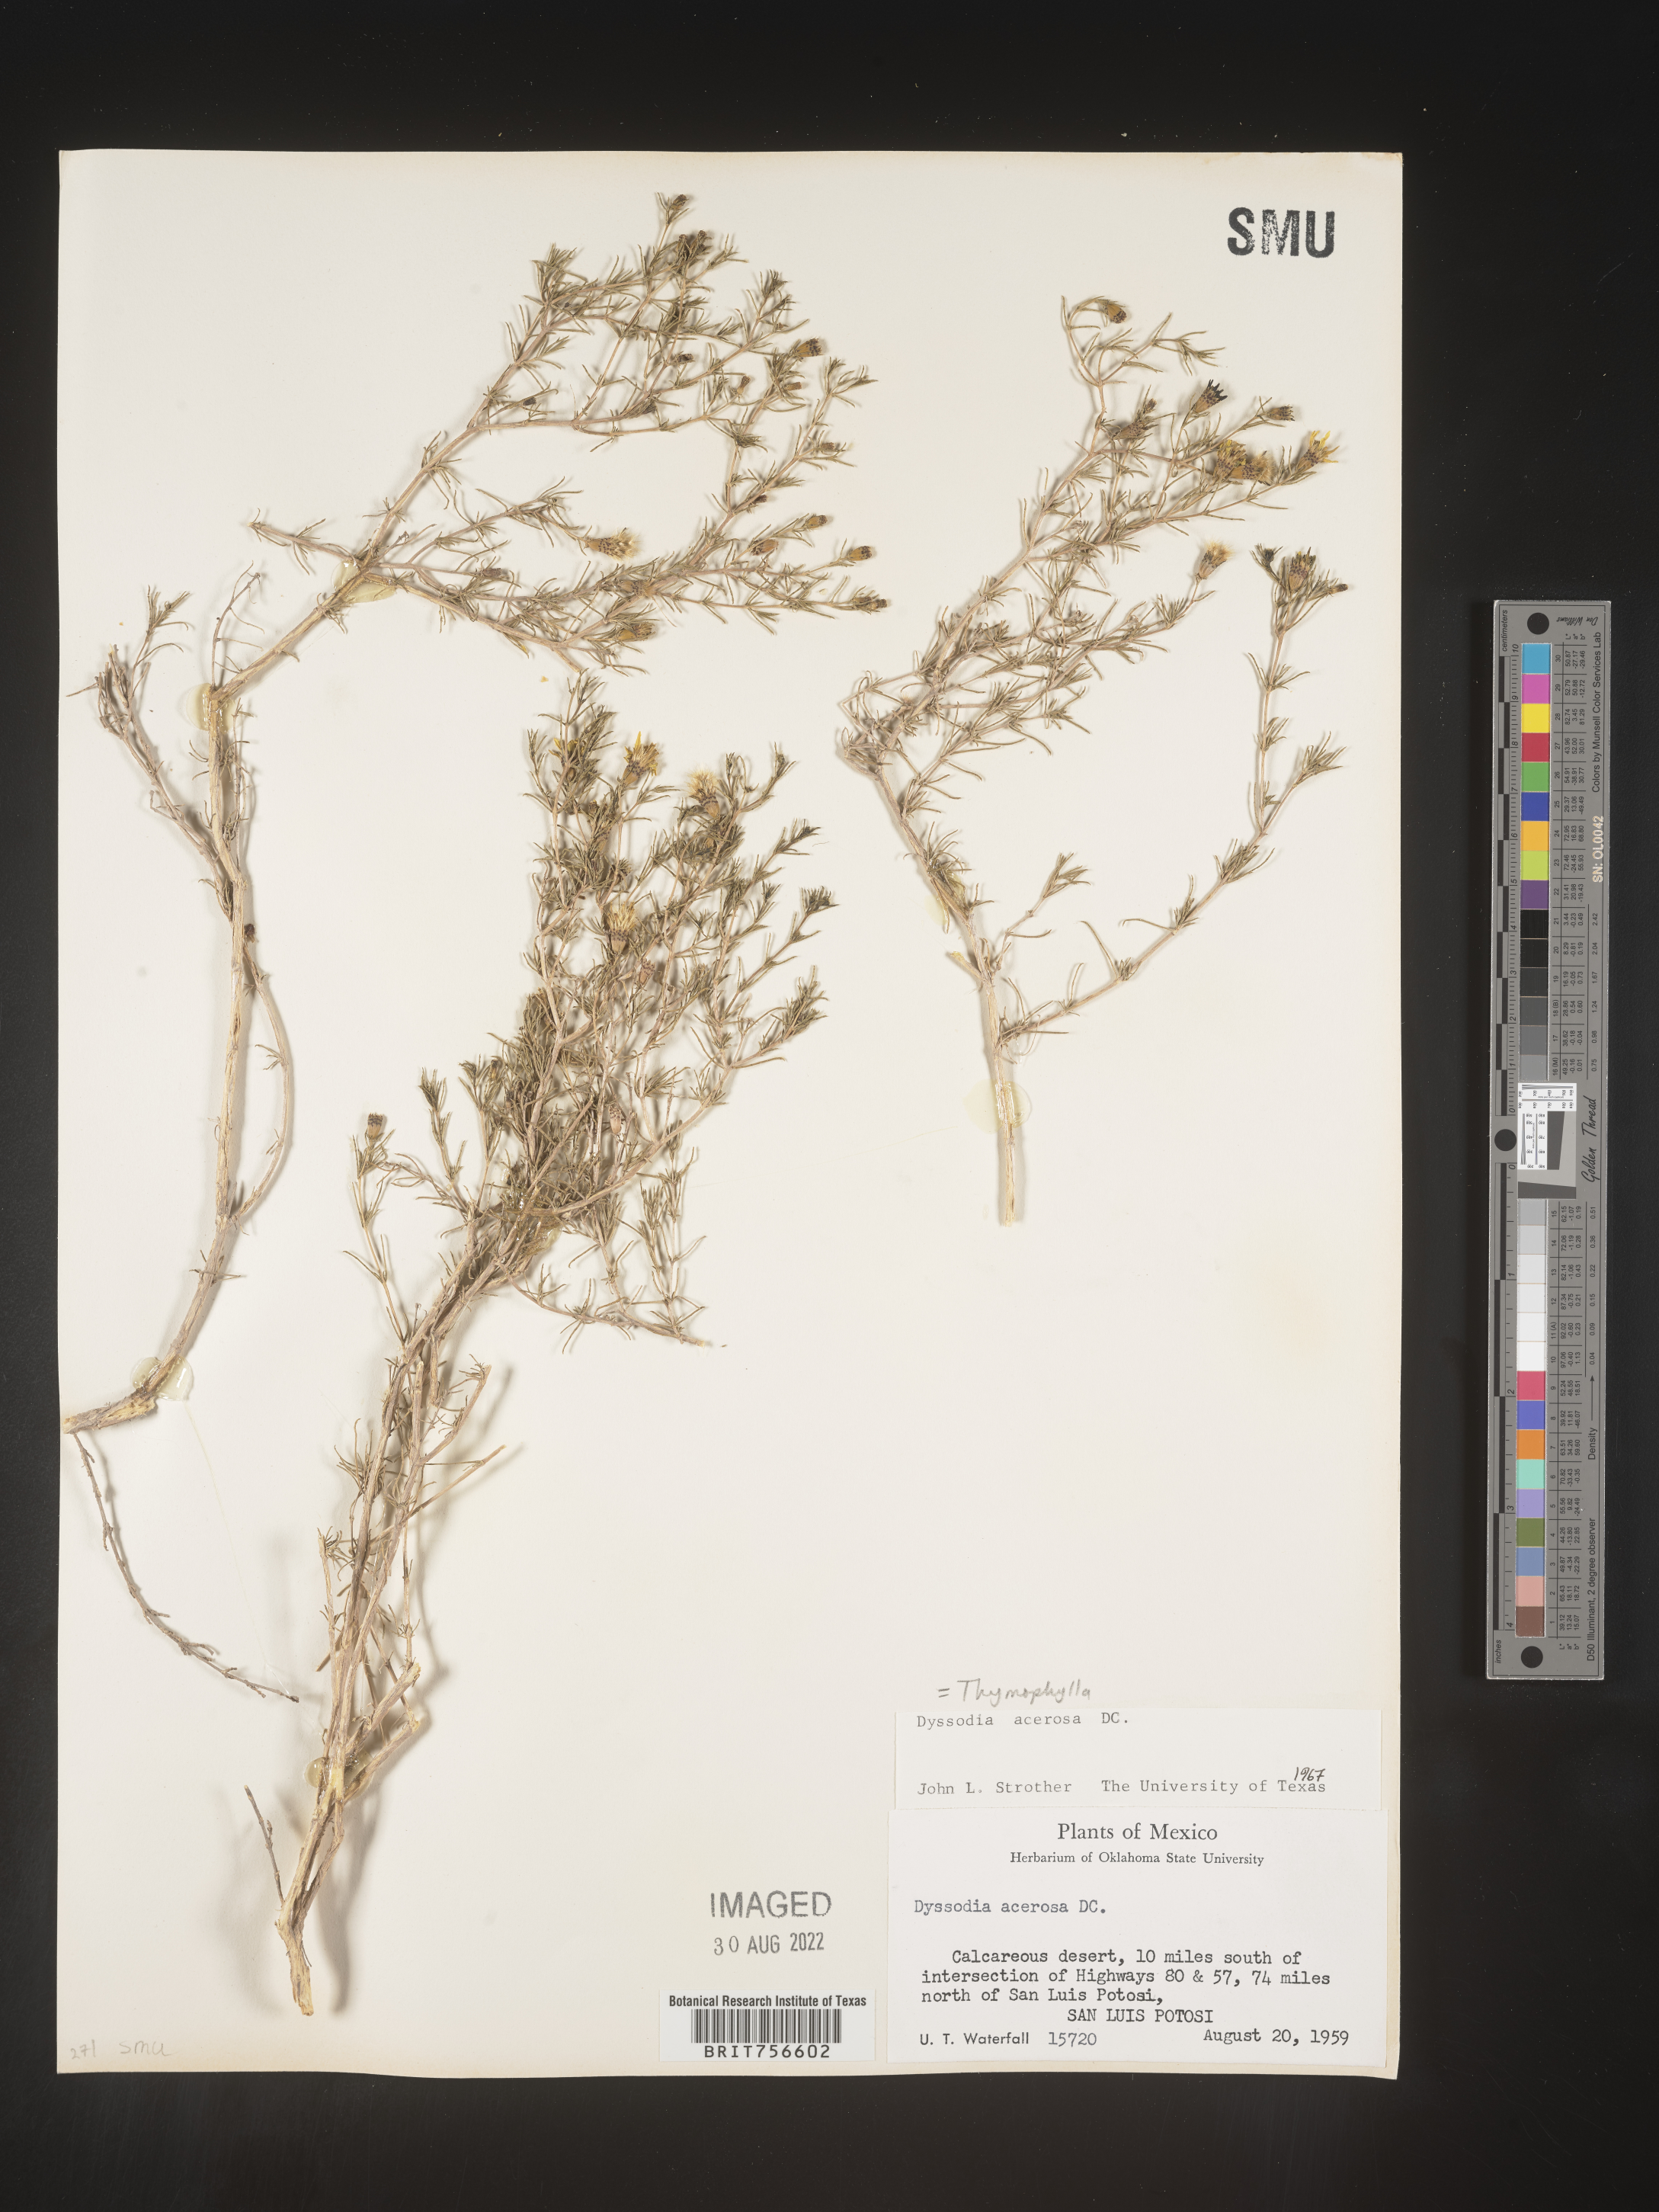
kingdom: Plantae
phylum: Tracheophyta
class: Magnoliopsida
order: Asterales
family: Asteraceae
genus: Thymophylla
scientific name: Thymophylla acerosa
